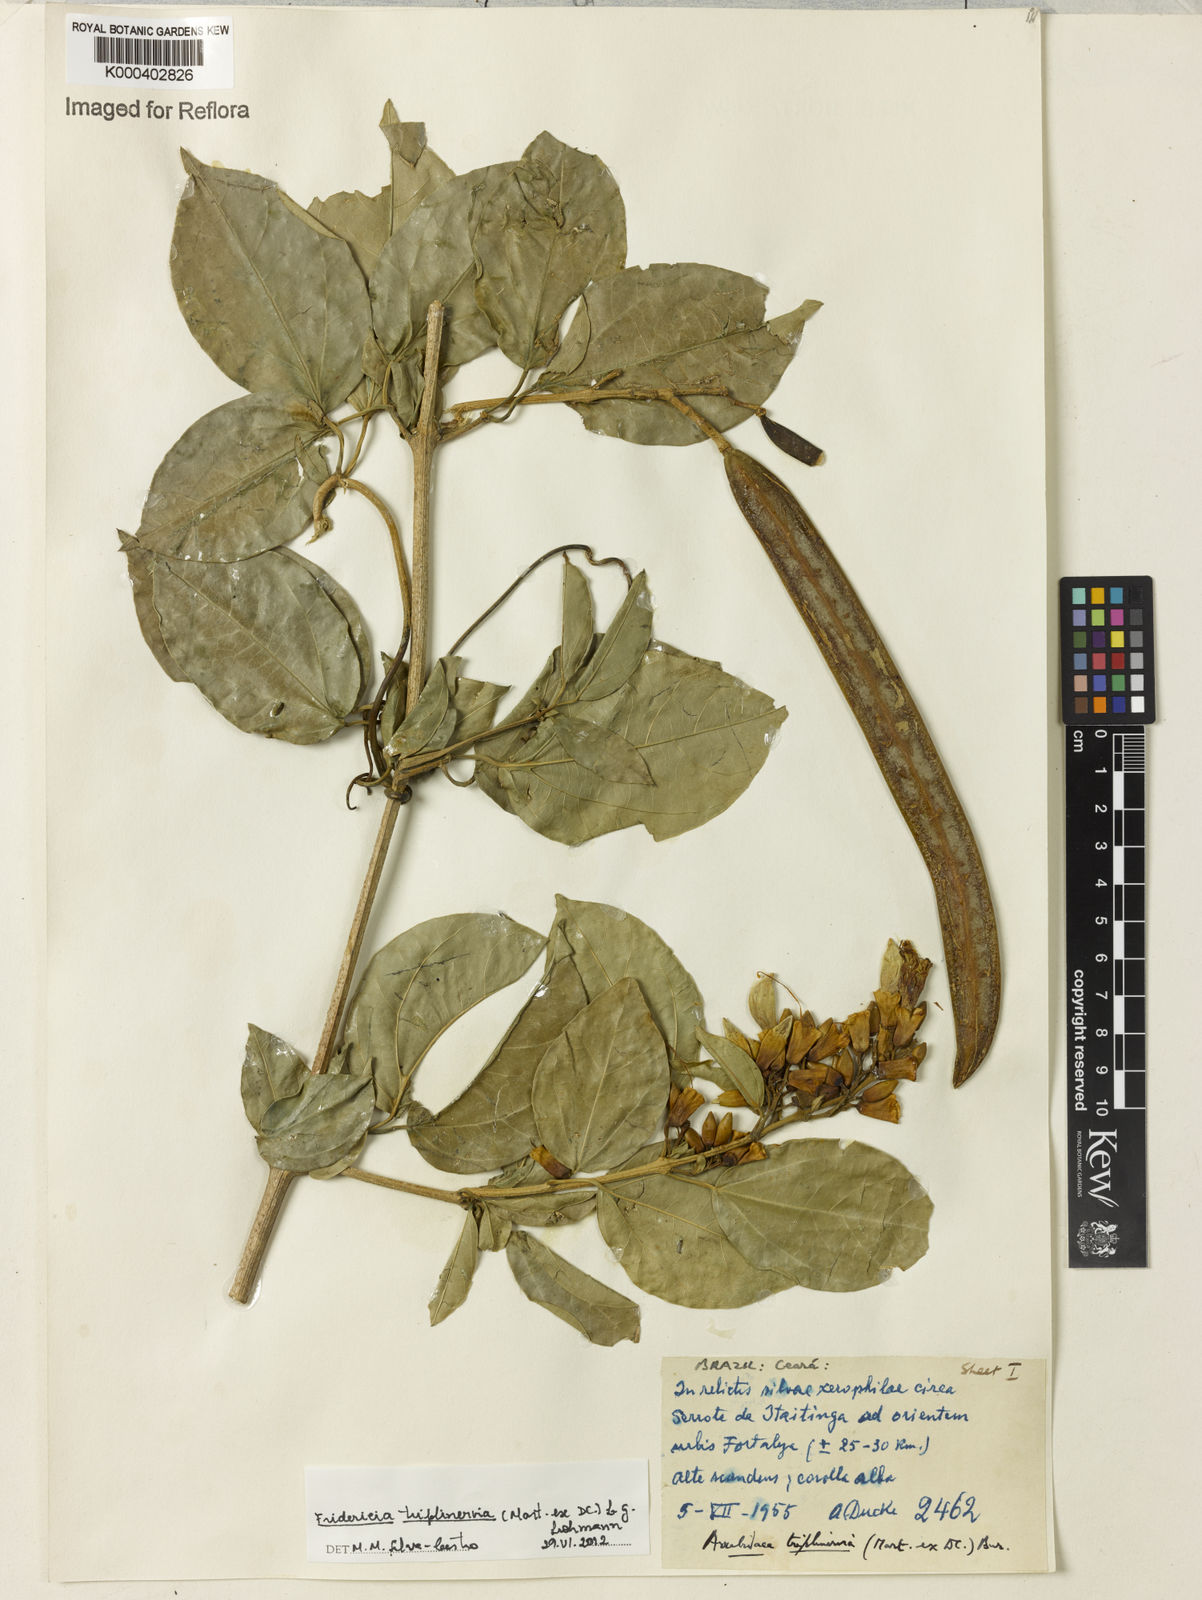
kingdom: Plantae
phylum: Tracheophyta
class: Magnoliopsida
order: Lamiales
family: Bignoniaceae
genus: Fridericia
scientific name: Fridericia triplinervia
